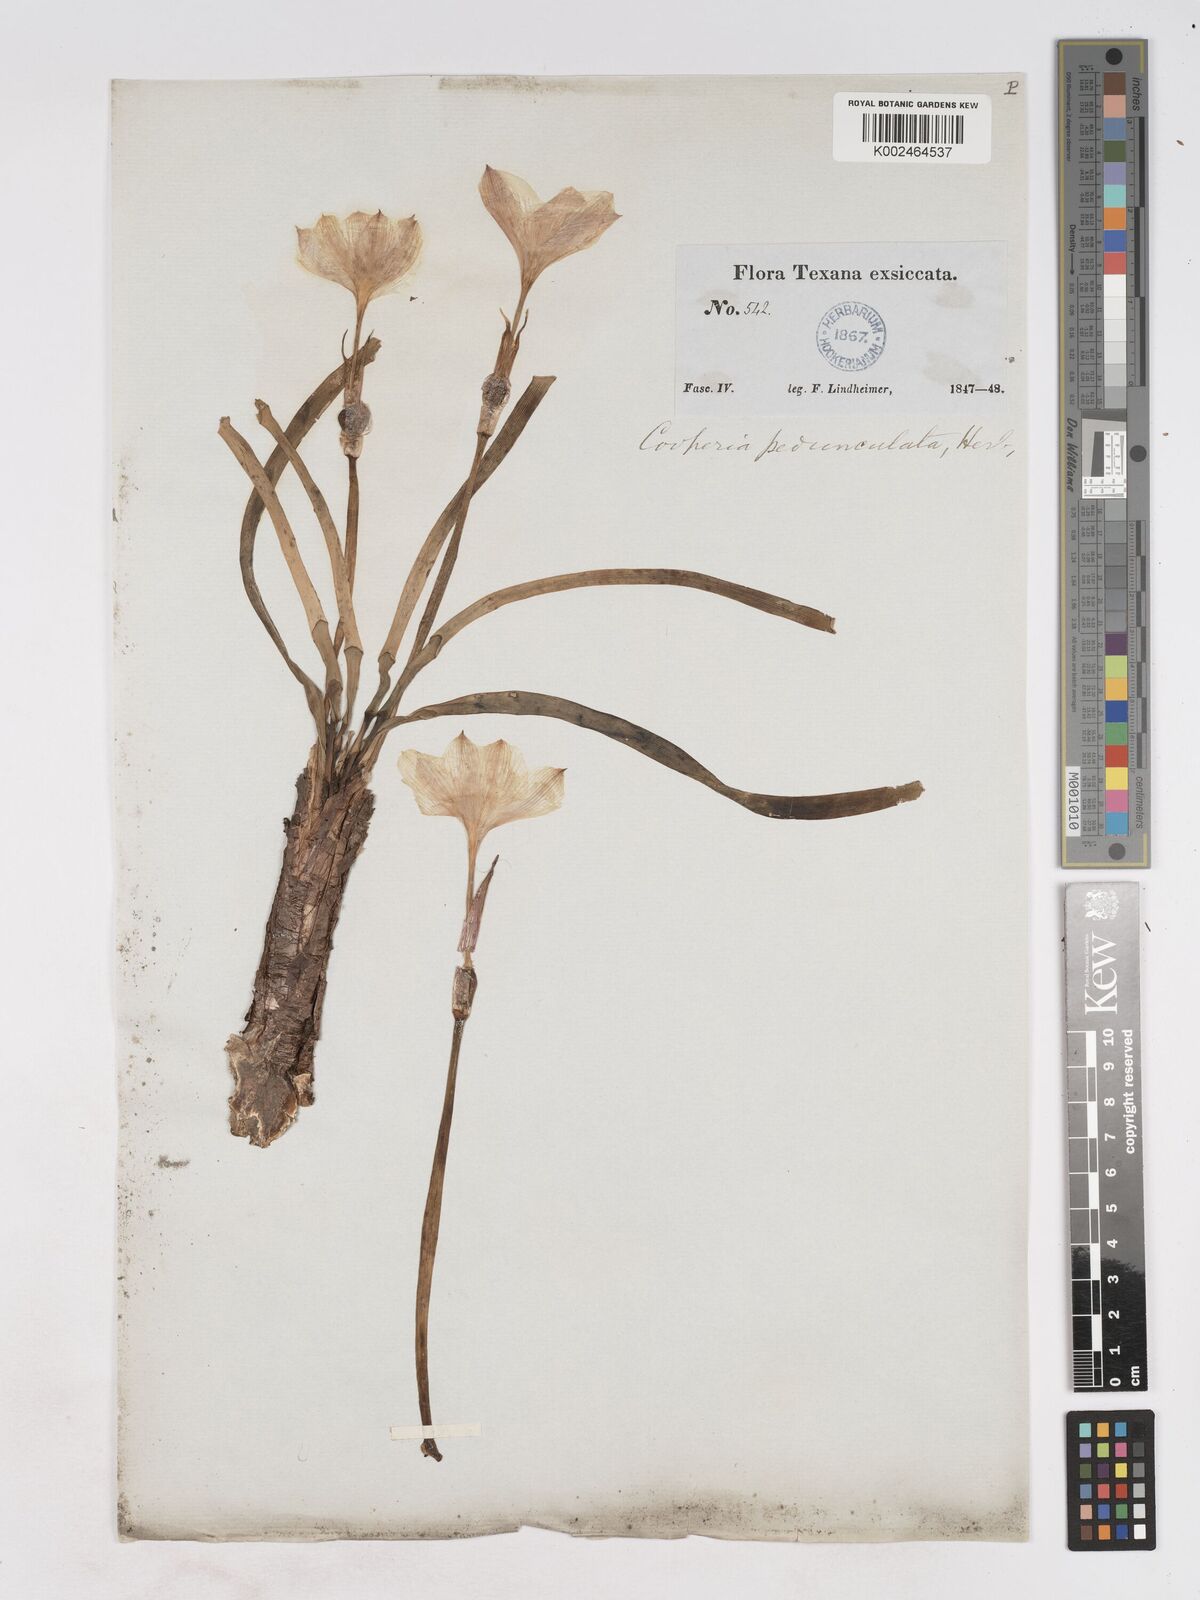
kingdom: Plantae
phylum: Tracheophyta
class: Liliopsida
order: Asparagales
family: Amaryllidaceae
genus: Zephyranthes
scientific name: Zephyranthes drummondii
